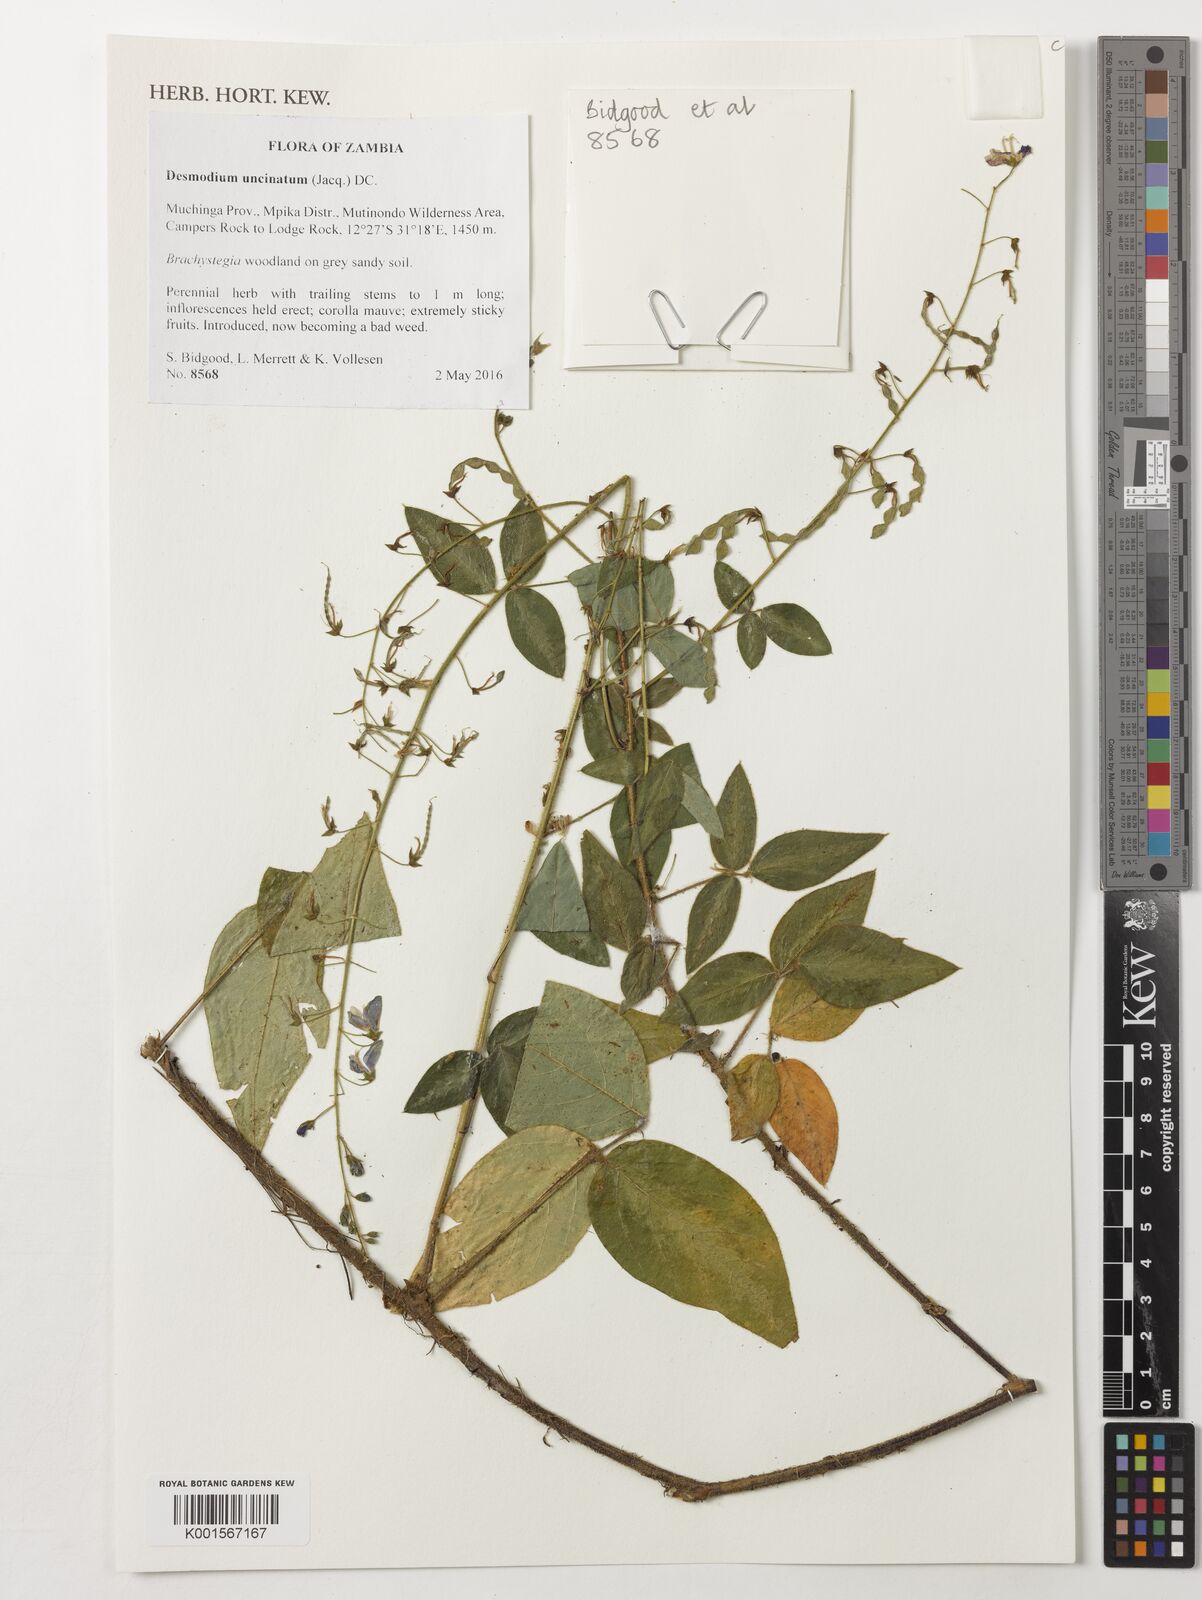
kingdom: Plantae
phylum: Tracheophyta
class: Magnoliopsida
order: Fabales
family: Fabaceae
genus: Desmodium
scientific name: Desmodium uncinatum
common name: Silverleaf desmodium
